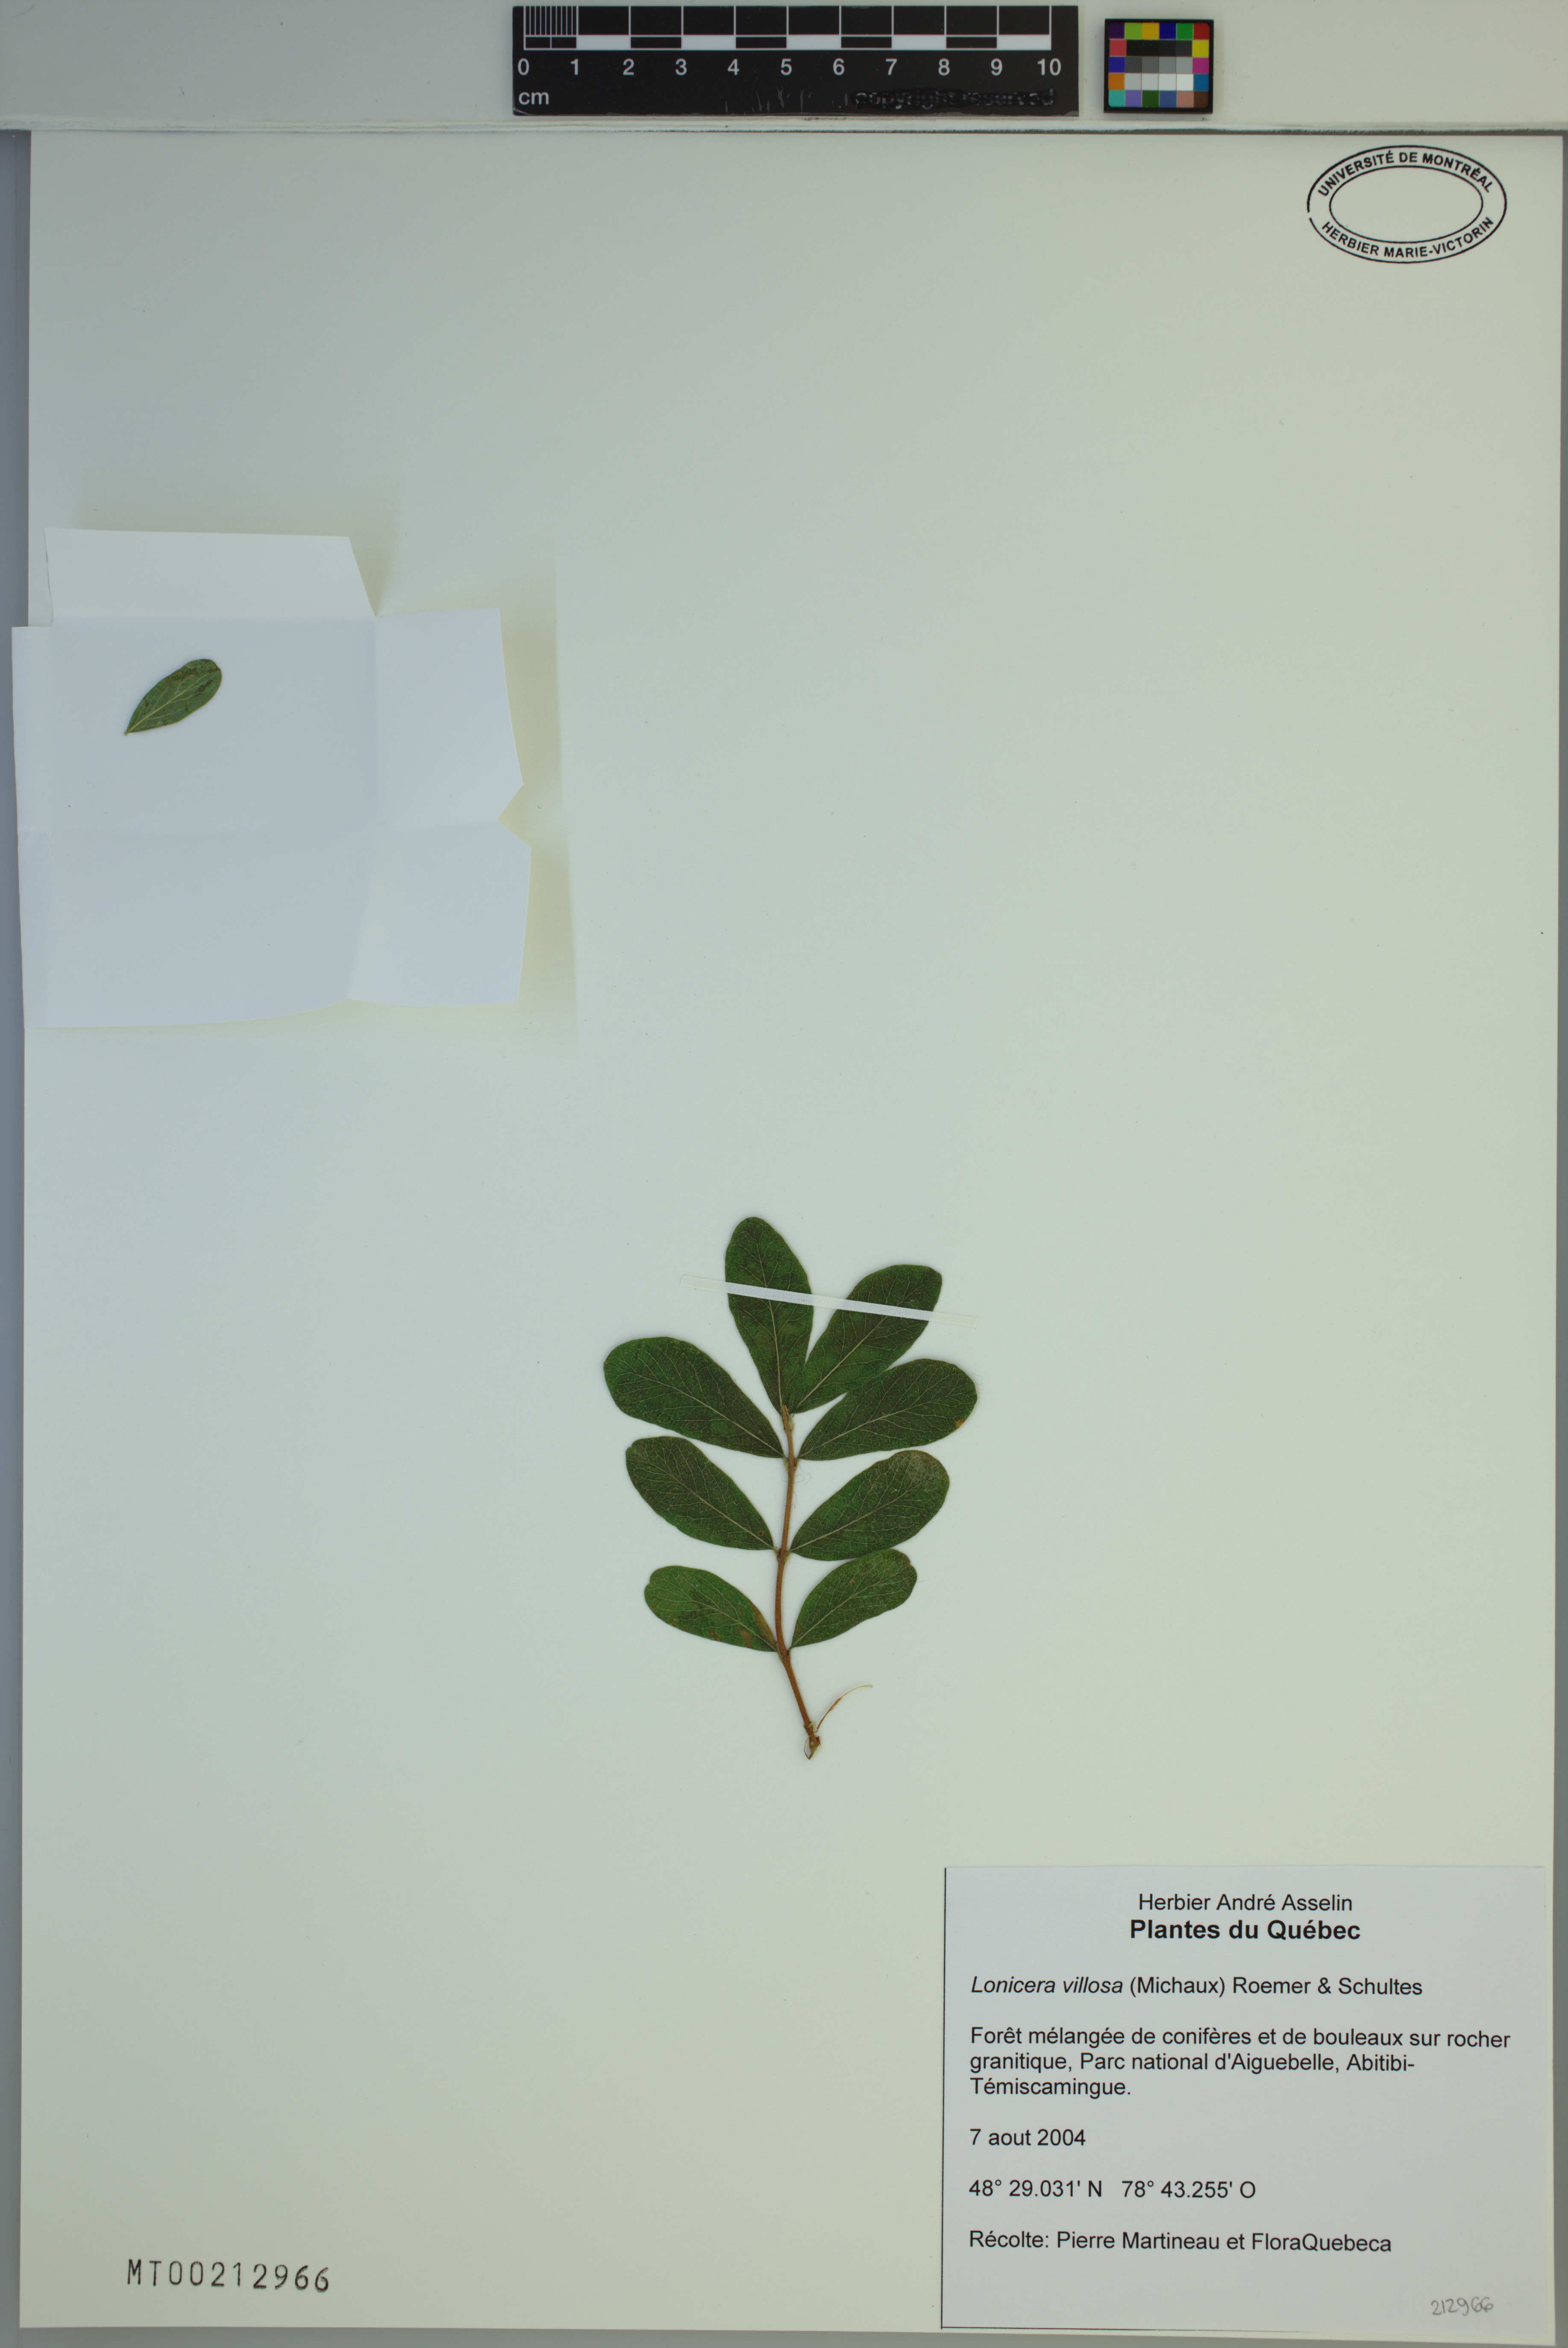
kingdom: Plantae
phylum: Tracheophyta
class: Magnoliopsida
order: Dipsacales
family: Caprifoliaceae
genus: Lonicera
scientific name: Lonicera villosa
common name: Mountain fly-honeysuckle
